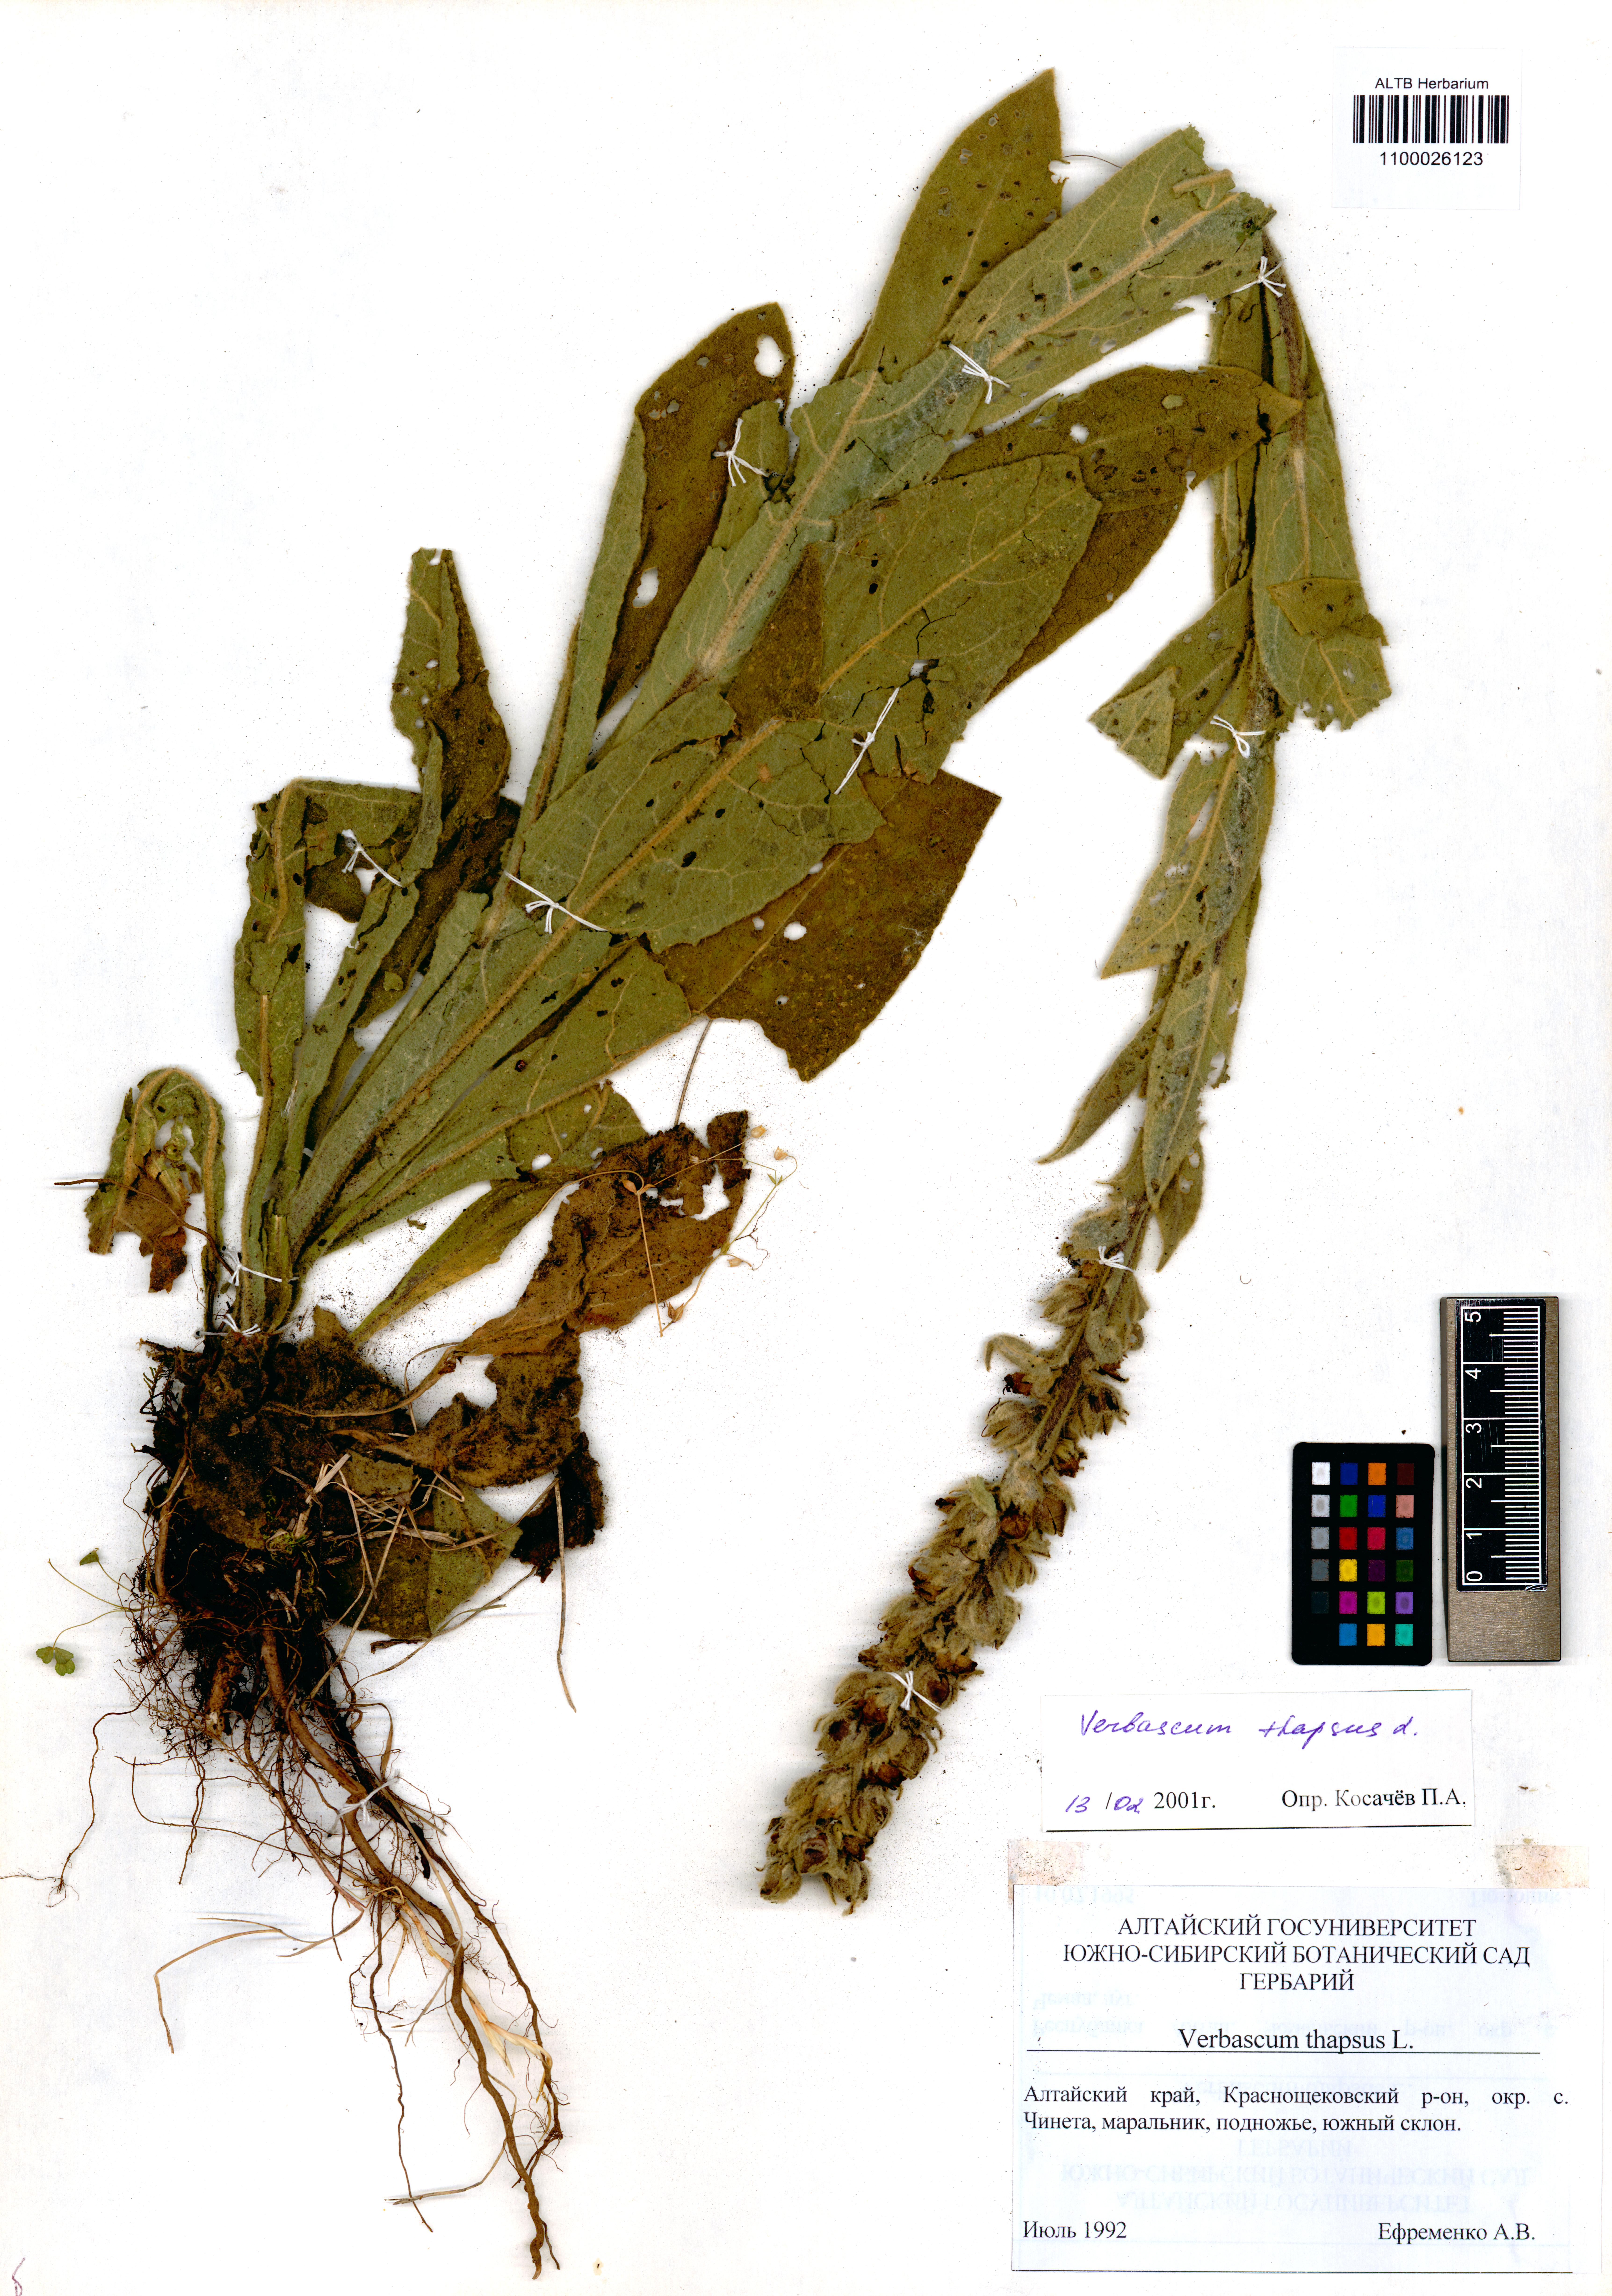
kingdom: Plantae
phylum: Tracheophyta
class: Magnoliopsida
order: Lamiales
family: Scrophulariaceae
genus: Verbascum
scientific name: Verbascum thapsus
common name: Common mullein
